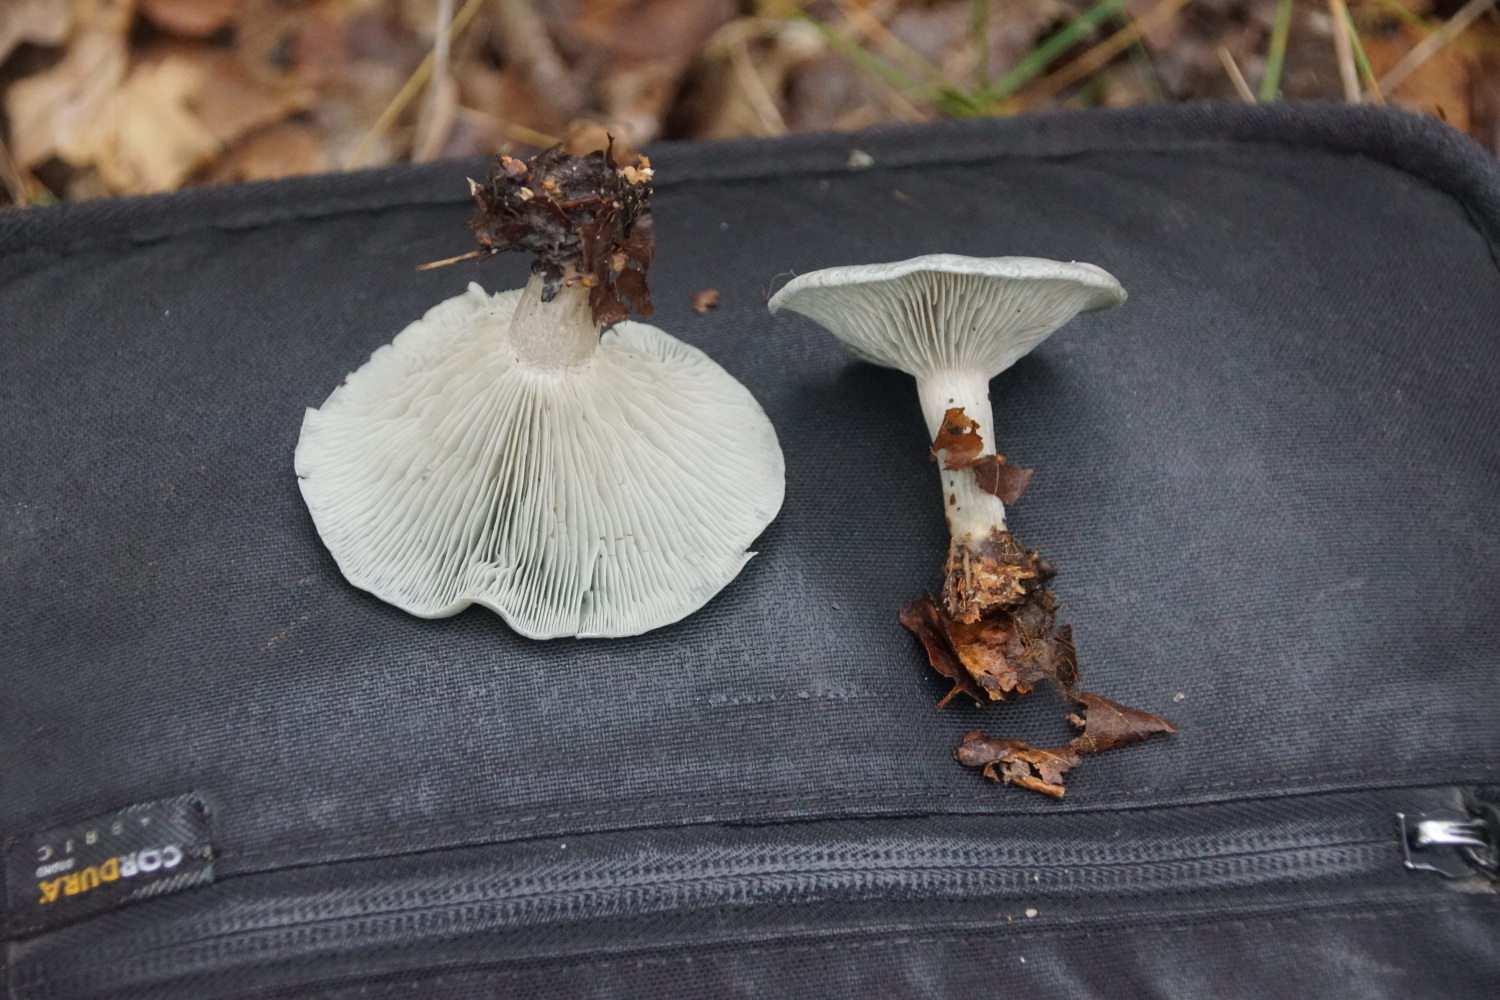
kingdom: Fungi
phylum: Basidiomycota
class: Agaricomycetes
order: Agaricales
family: Tricholomataceae
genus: Clitocybe
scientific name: Clitocybe odora
